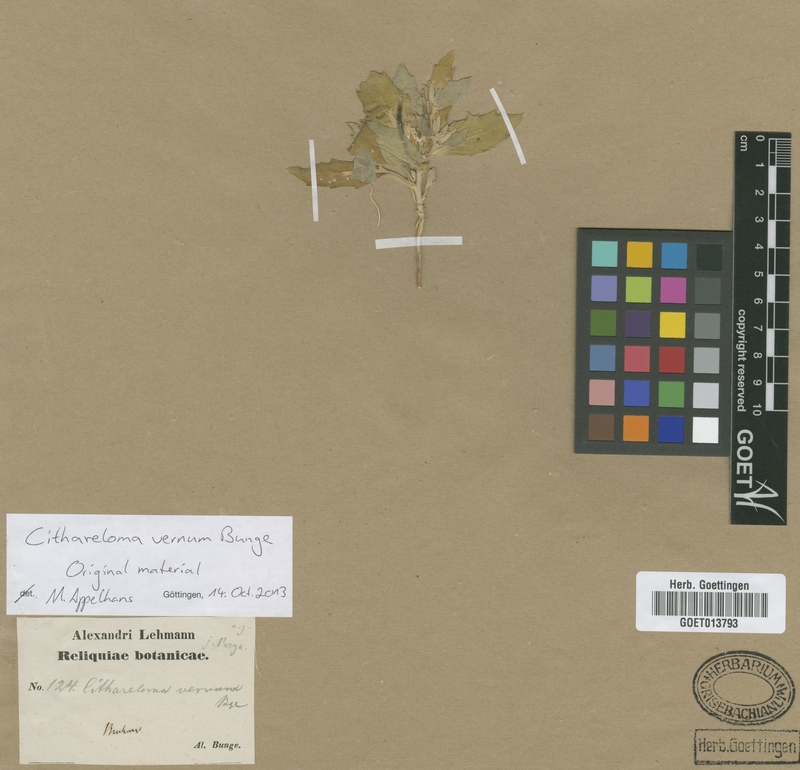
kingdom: Plantae
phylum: Tracheophyta
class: Magnoliopsida
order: Brassicales
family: Brassicaceae
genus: Cithareloma
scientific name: Cithareloma vernum
